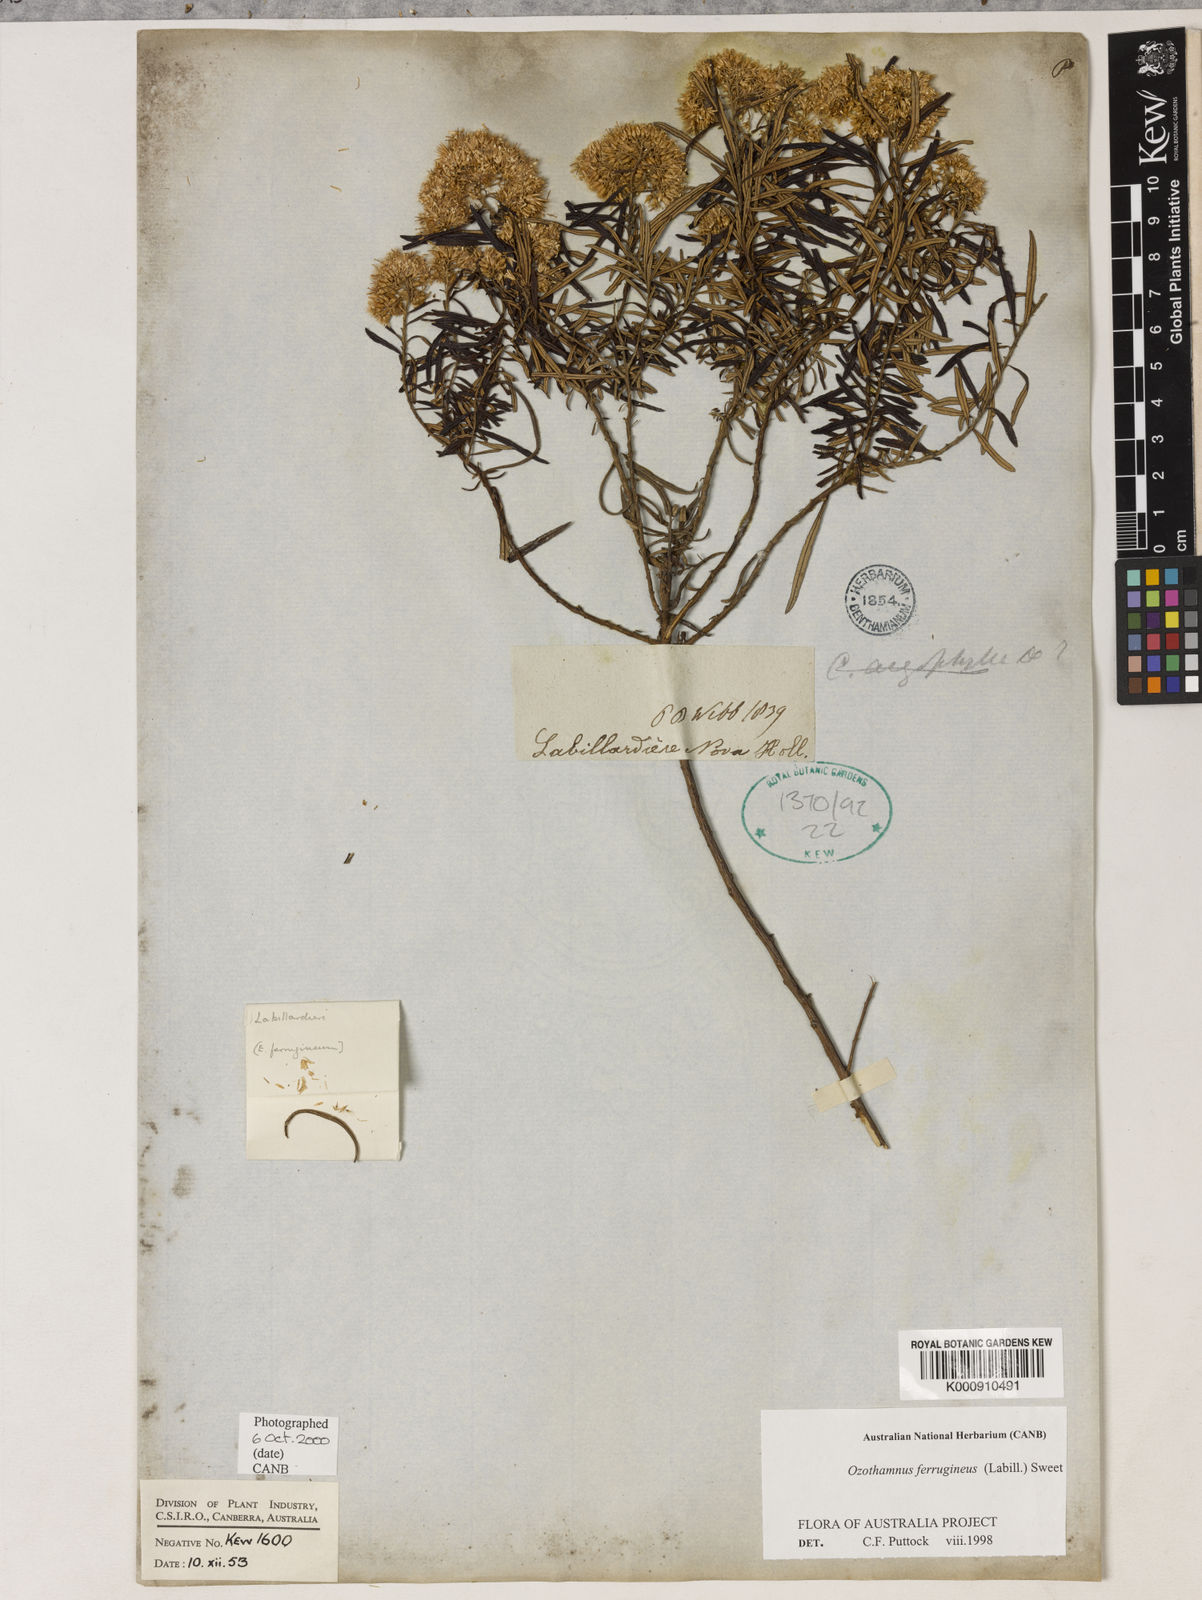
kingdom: Plantae
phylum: Tracheophyta
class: Magnoliopsida
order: Asterales
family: Asteraceae
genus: Ozothamnus
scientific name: Ozothamnus ferrugineus
